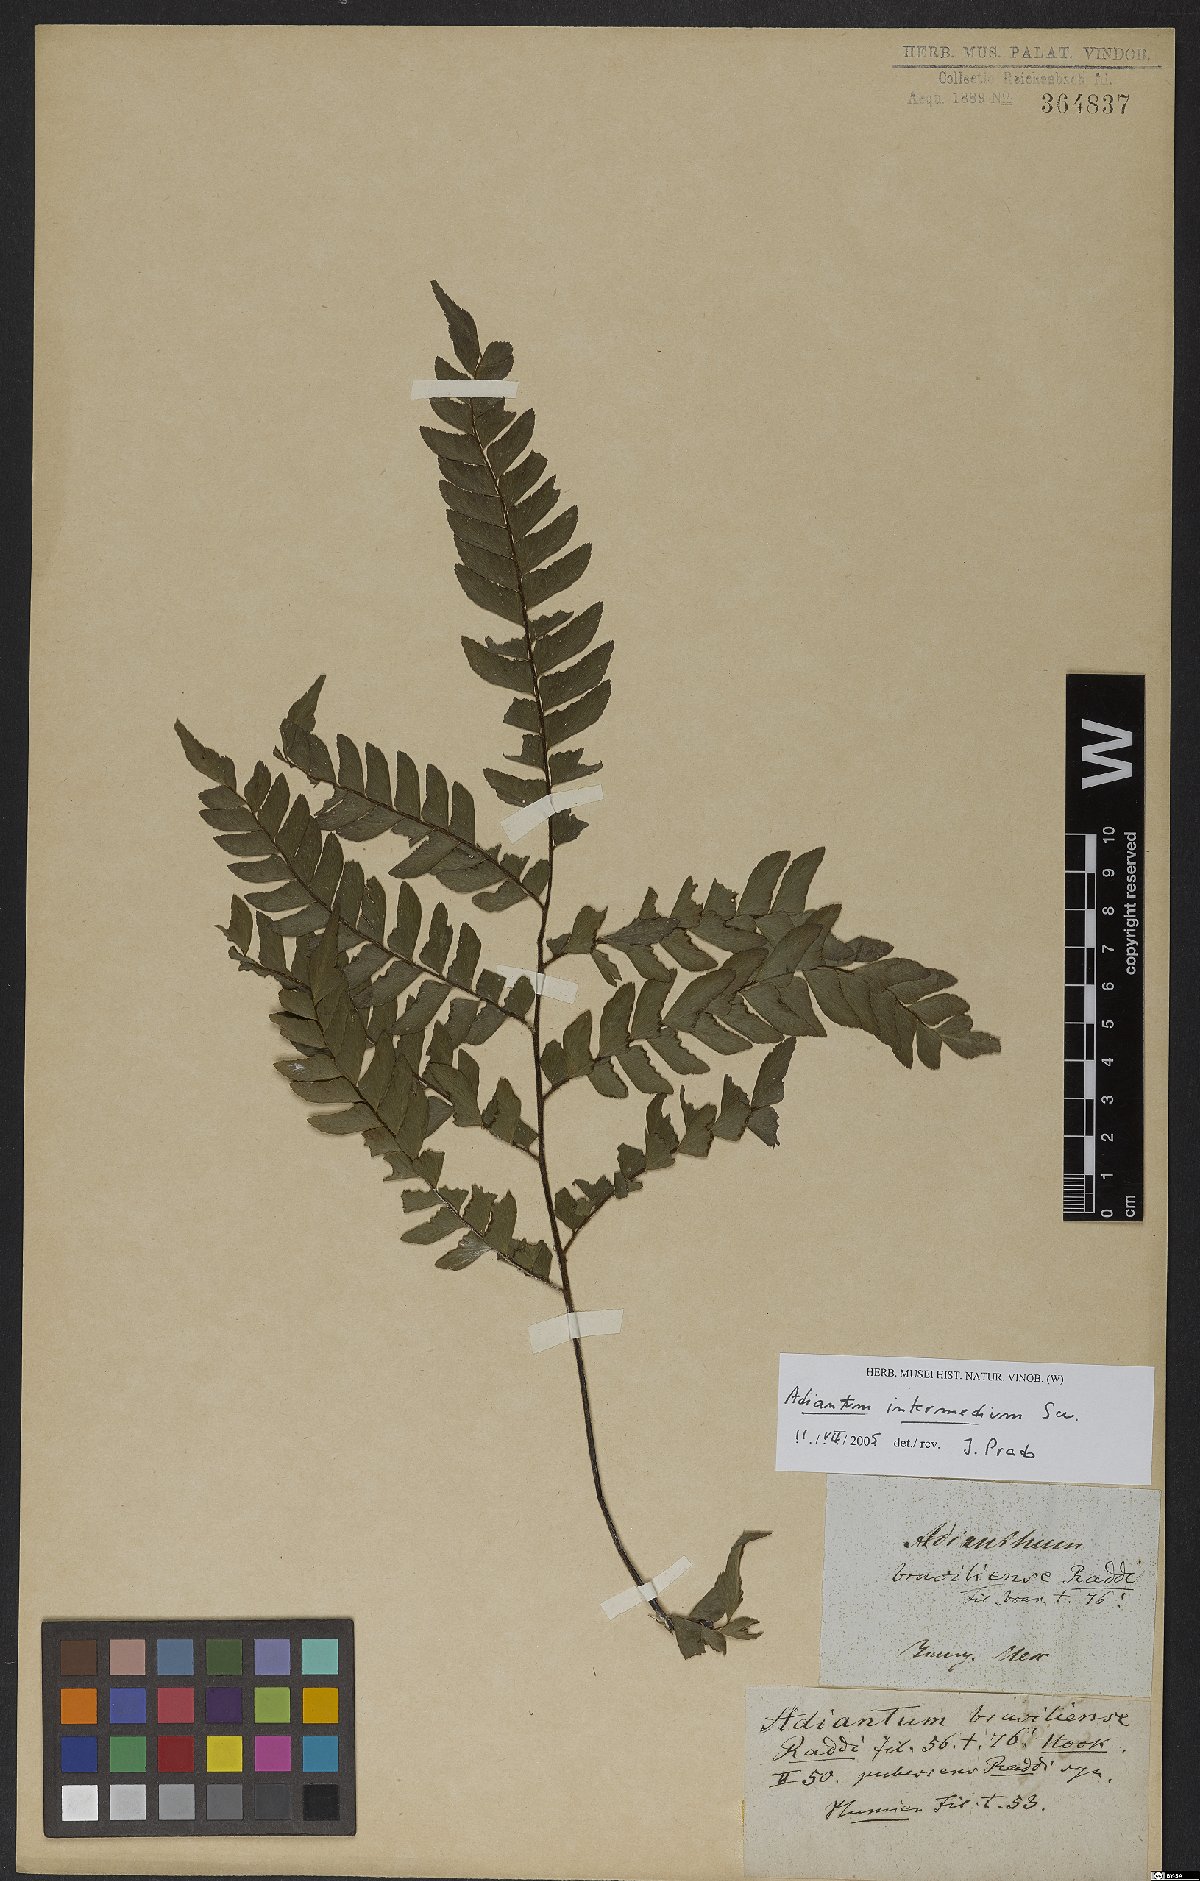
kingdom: Plantae
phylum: Tracheophyta
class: Polypodiopsida
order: Polypodiales
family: Pteridaceae
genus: Adiantum
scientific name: Adiantum intermedium
